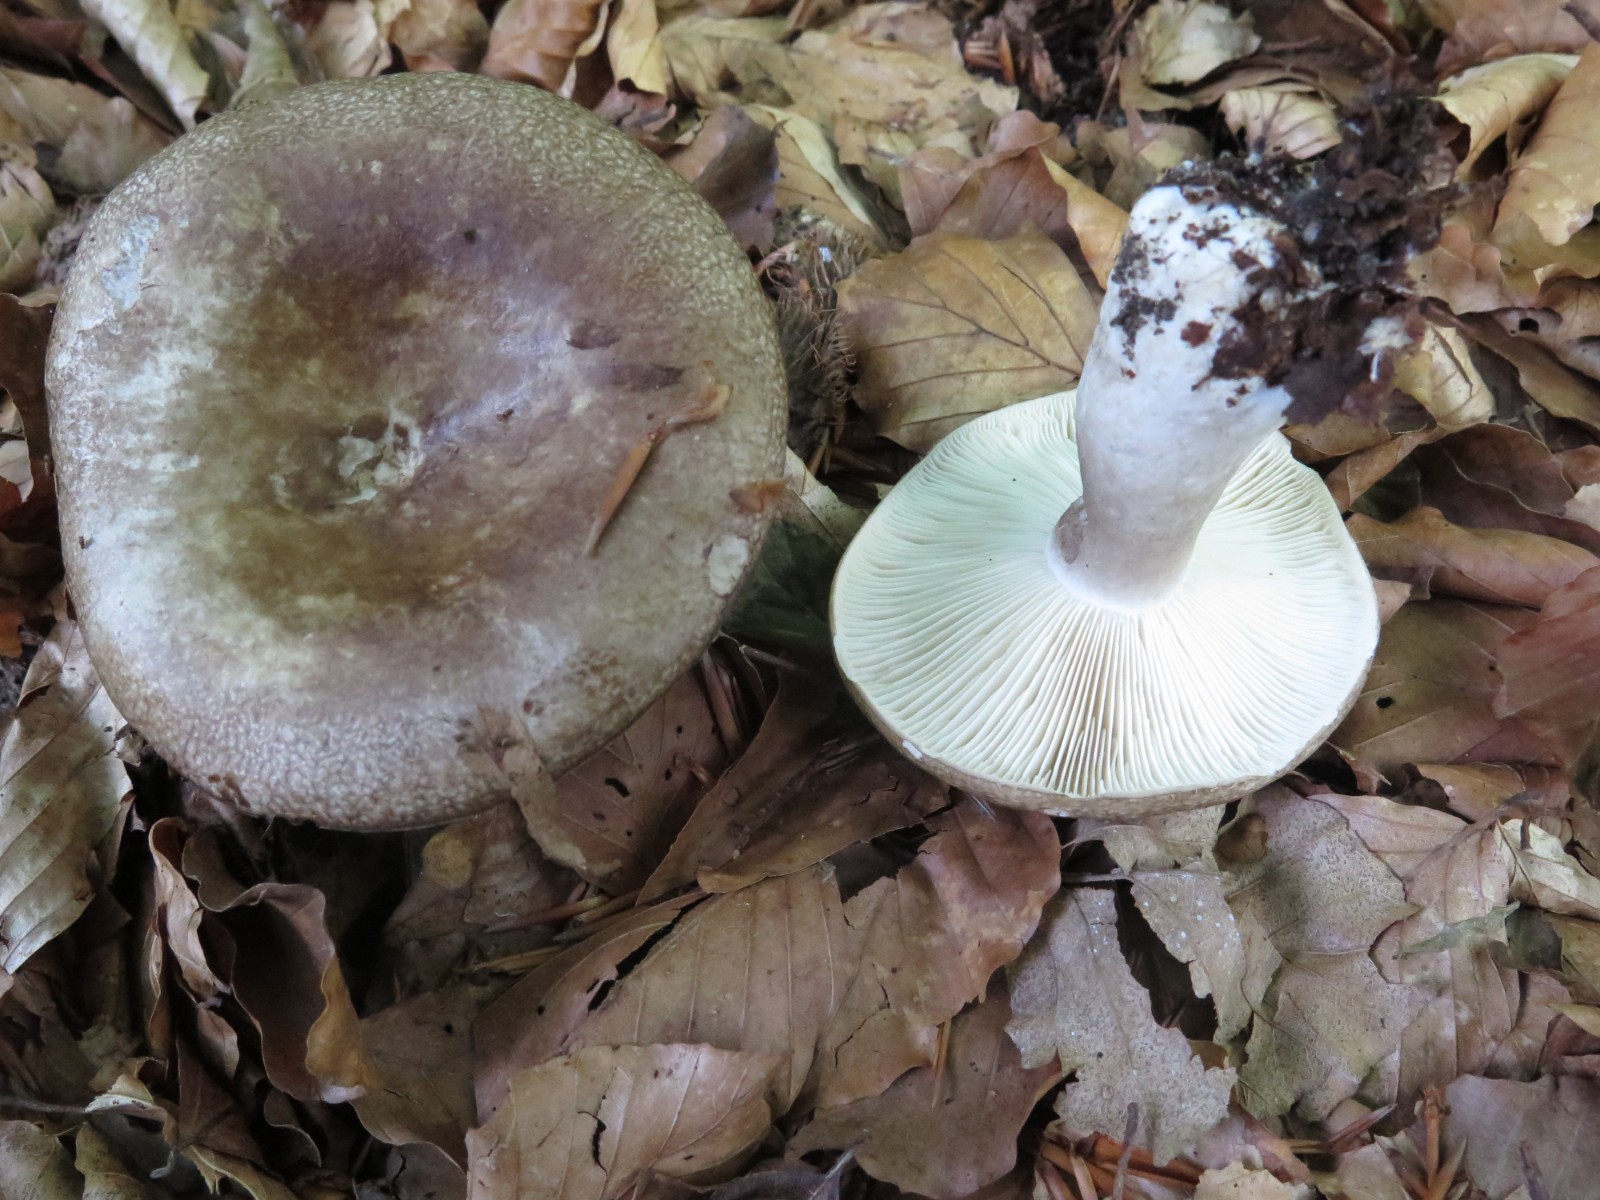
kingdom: Fungi
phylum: Basidiomycota
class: Agaricomycetes
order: Russulales
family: Russulaceae
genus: Russula
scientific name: Russula densifolia
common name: tætbladet skørhat
